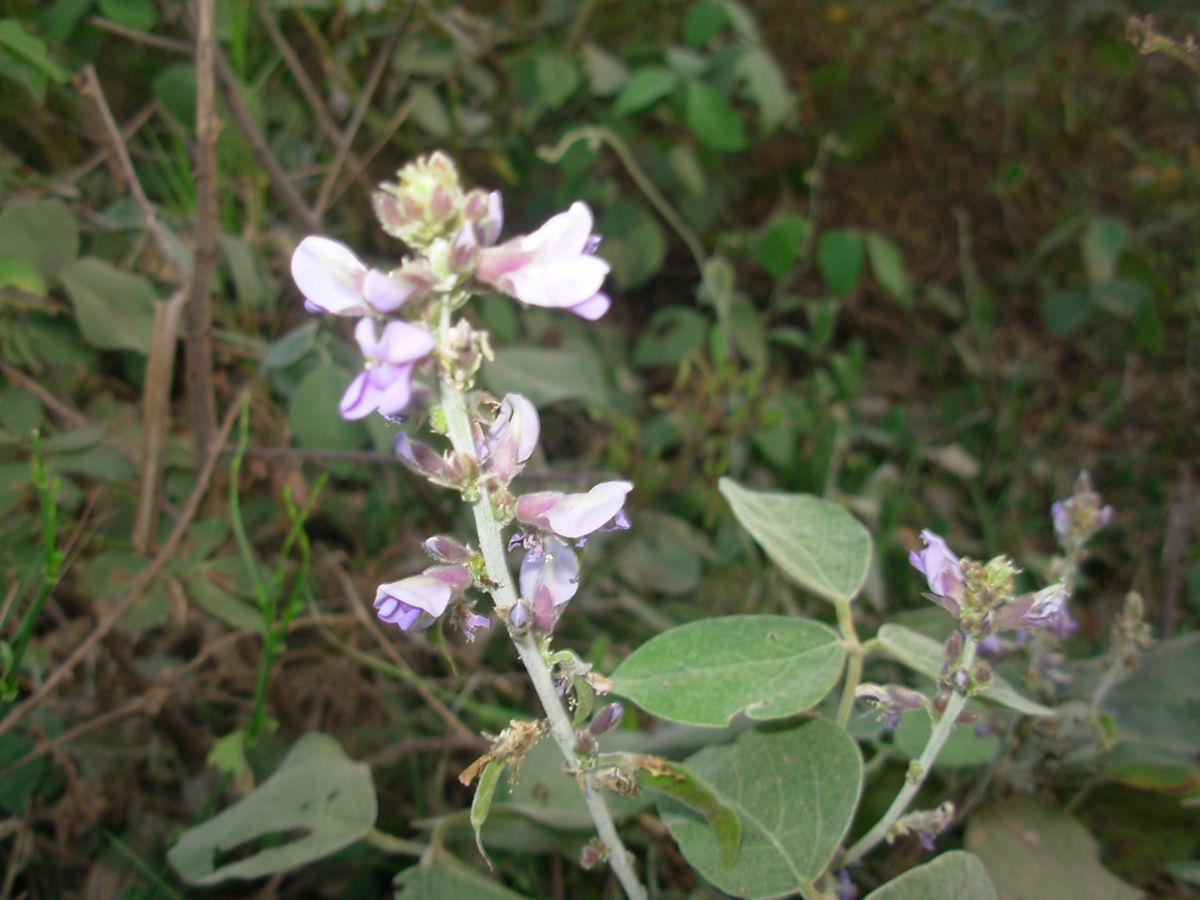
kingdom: Plantae
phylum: Tracheophyta
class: Magnoliopsida
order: Fabales
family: Fabaceae
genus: Calopogonium
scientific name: Calopogonium caeruleum
